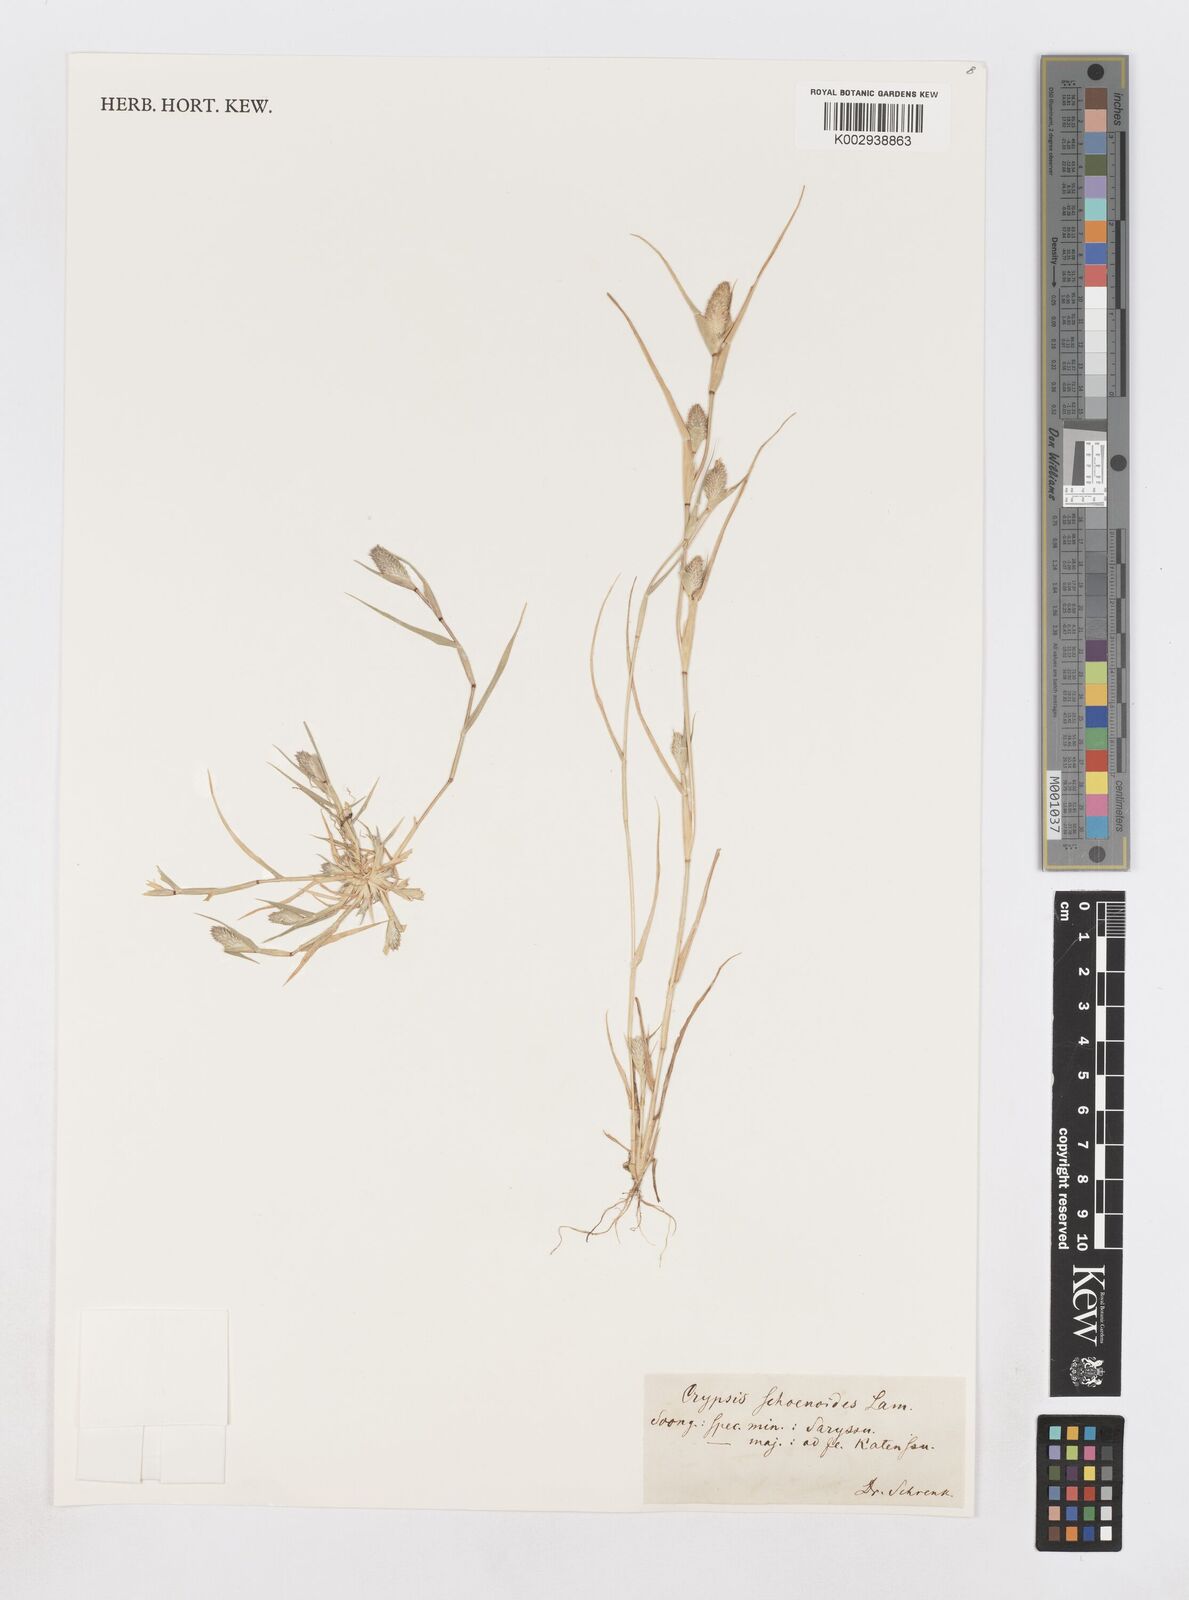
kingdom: Plantae
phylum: Tracheophyta
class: Liliopsida
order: Poales
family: Poaceae
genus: Sporobolus
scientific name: Sporobolus schoenoides
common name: Rush-like timothy
